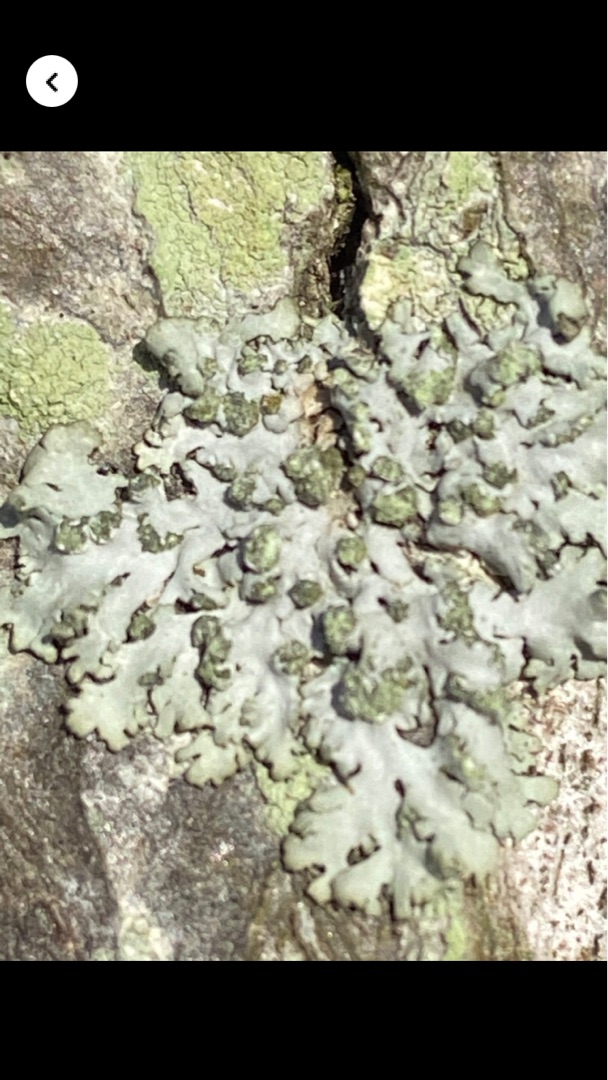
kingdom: Fungi
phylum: Ascomycota
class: Lecanoromycetes
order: Caliciales
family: Physciaceae
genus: Phaeophyscia
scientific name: Phaeophyscia orbicularis
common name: Grågrøn rosetlav
